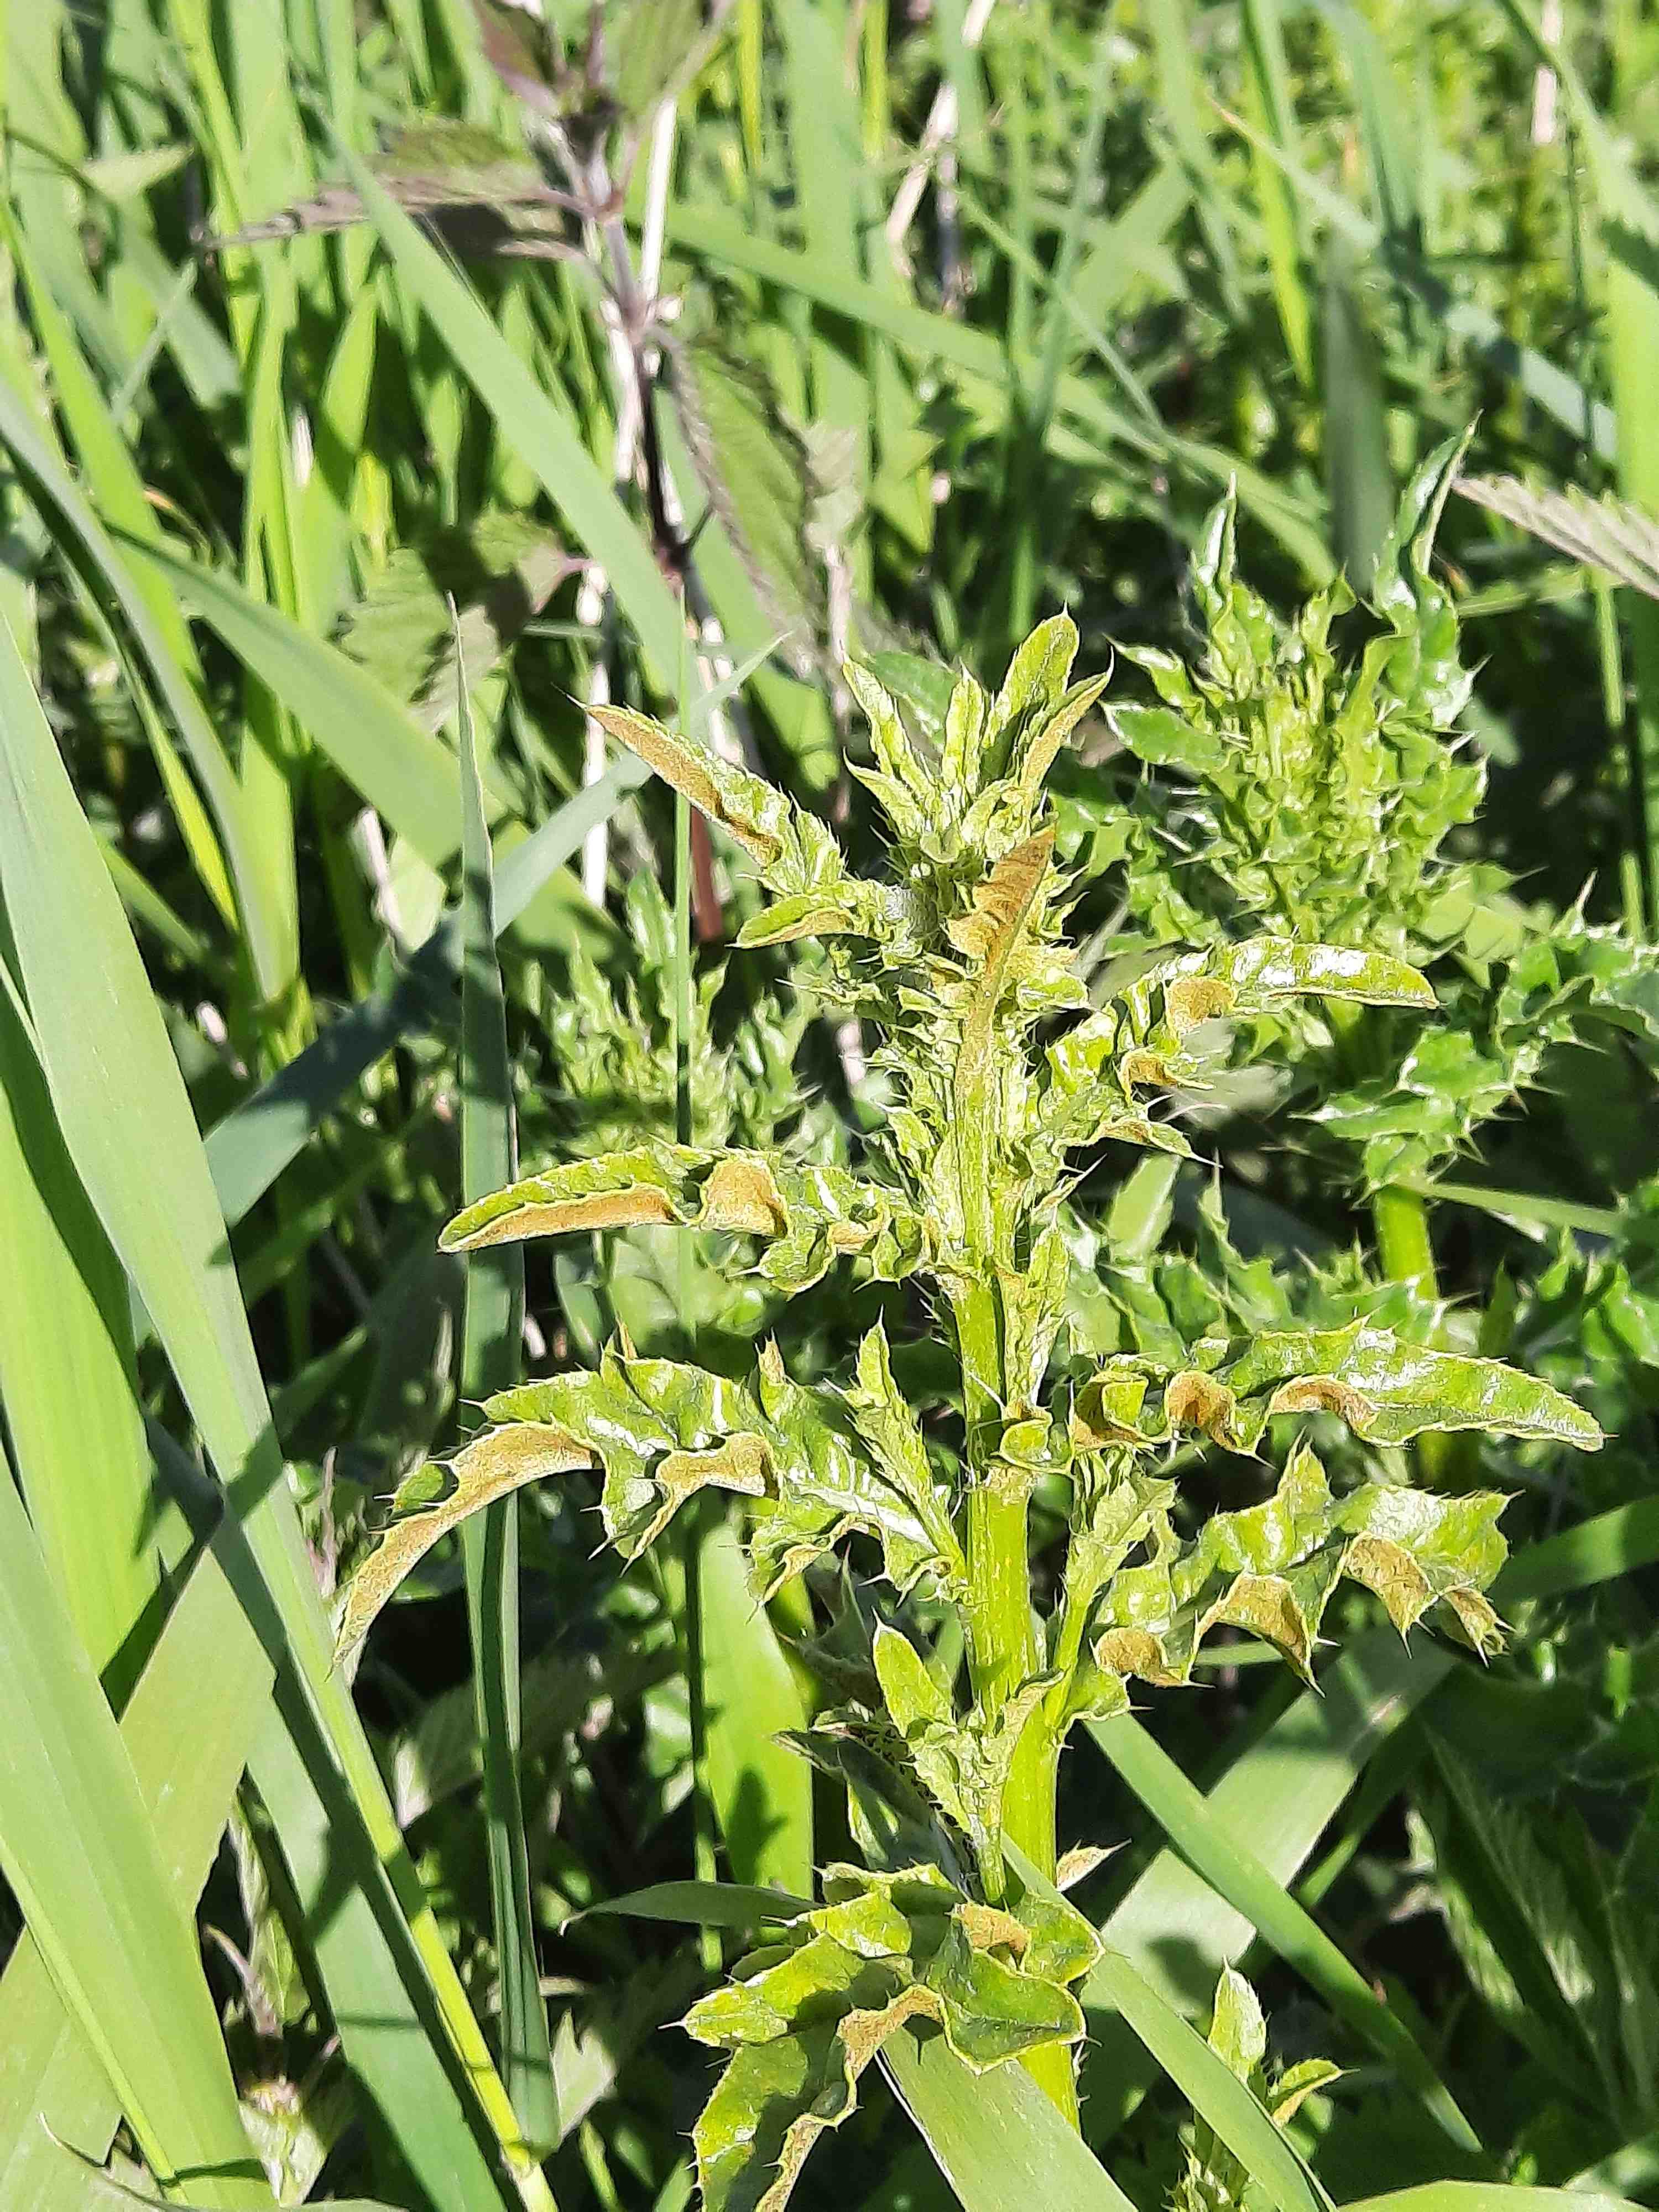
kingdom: Fungi
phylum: Basidiomycota
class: Pucciniomycetes
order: Pucciniales
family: Pucciniaceae
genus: Puccinia
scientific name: Puccinia suaveolens
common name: tidsel-tvecellerust
